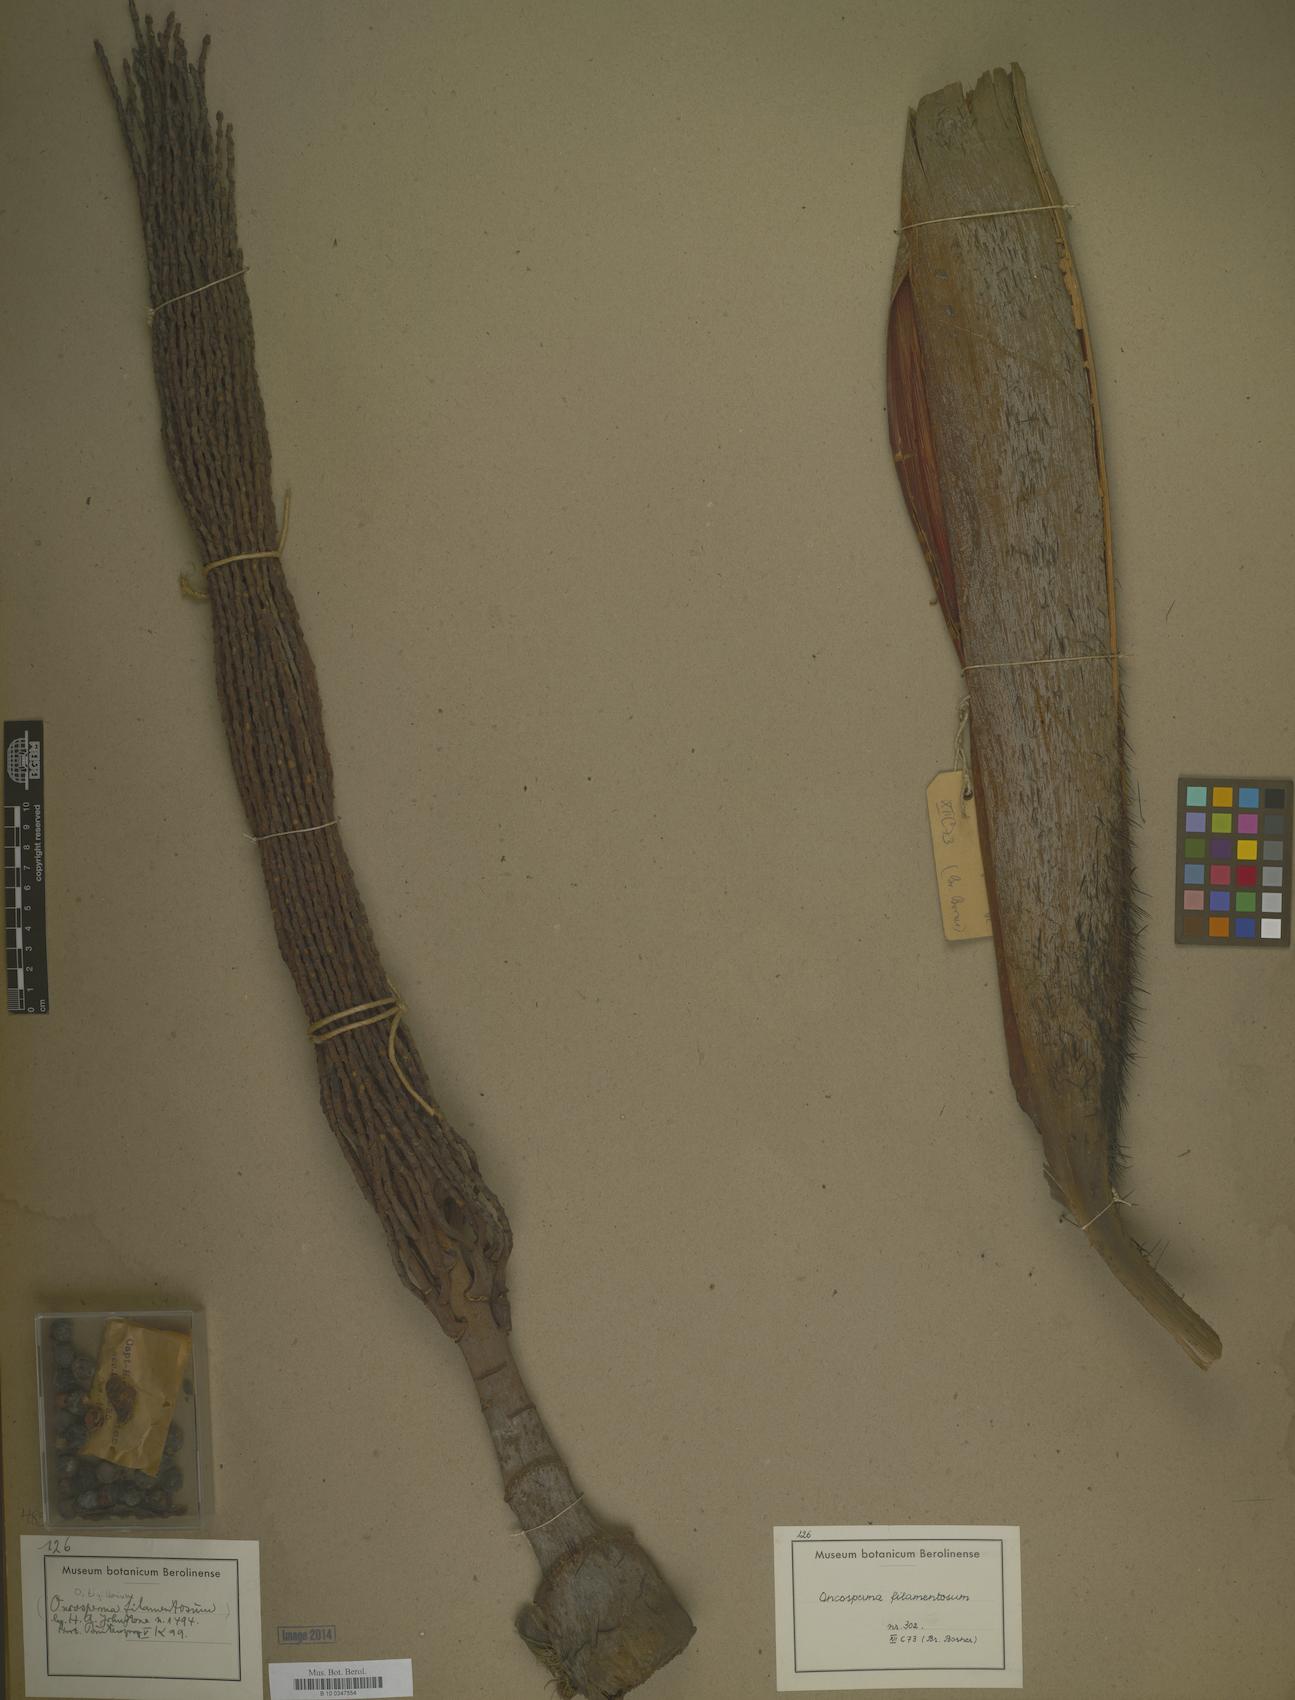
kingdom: Plantae
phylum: Tracheophyta
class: Liliopsida
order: Arecales
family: Arecaceae
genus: Oncosperma
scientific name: Oncosperma tigillarium
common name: Nibong
